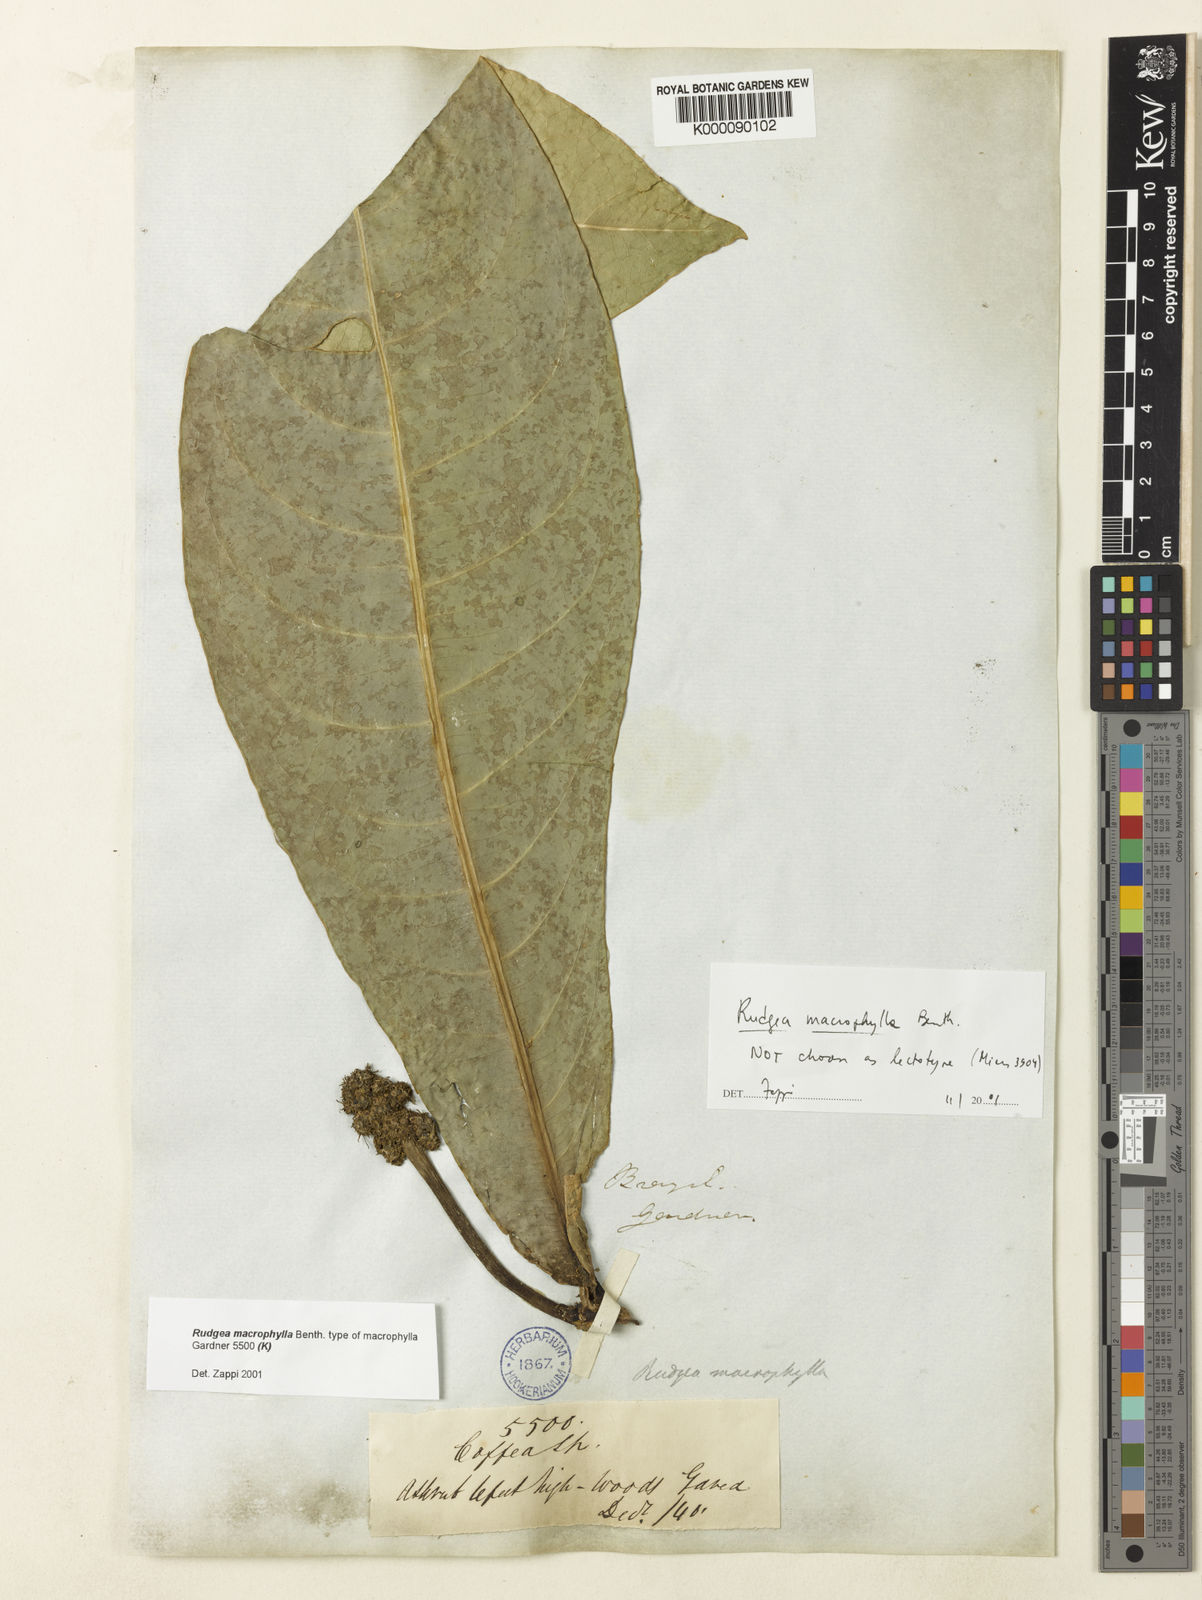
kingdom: Plantae
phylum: Tracheophyta
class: Magnoliopsida
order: Gentianales
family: Rubiaceae
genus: Rudgea
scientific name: Rudgea macrophylla
